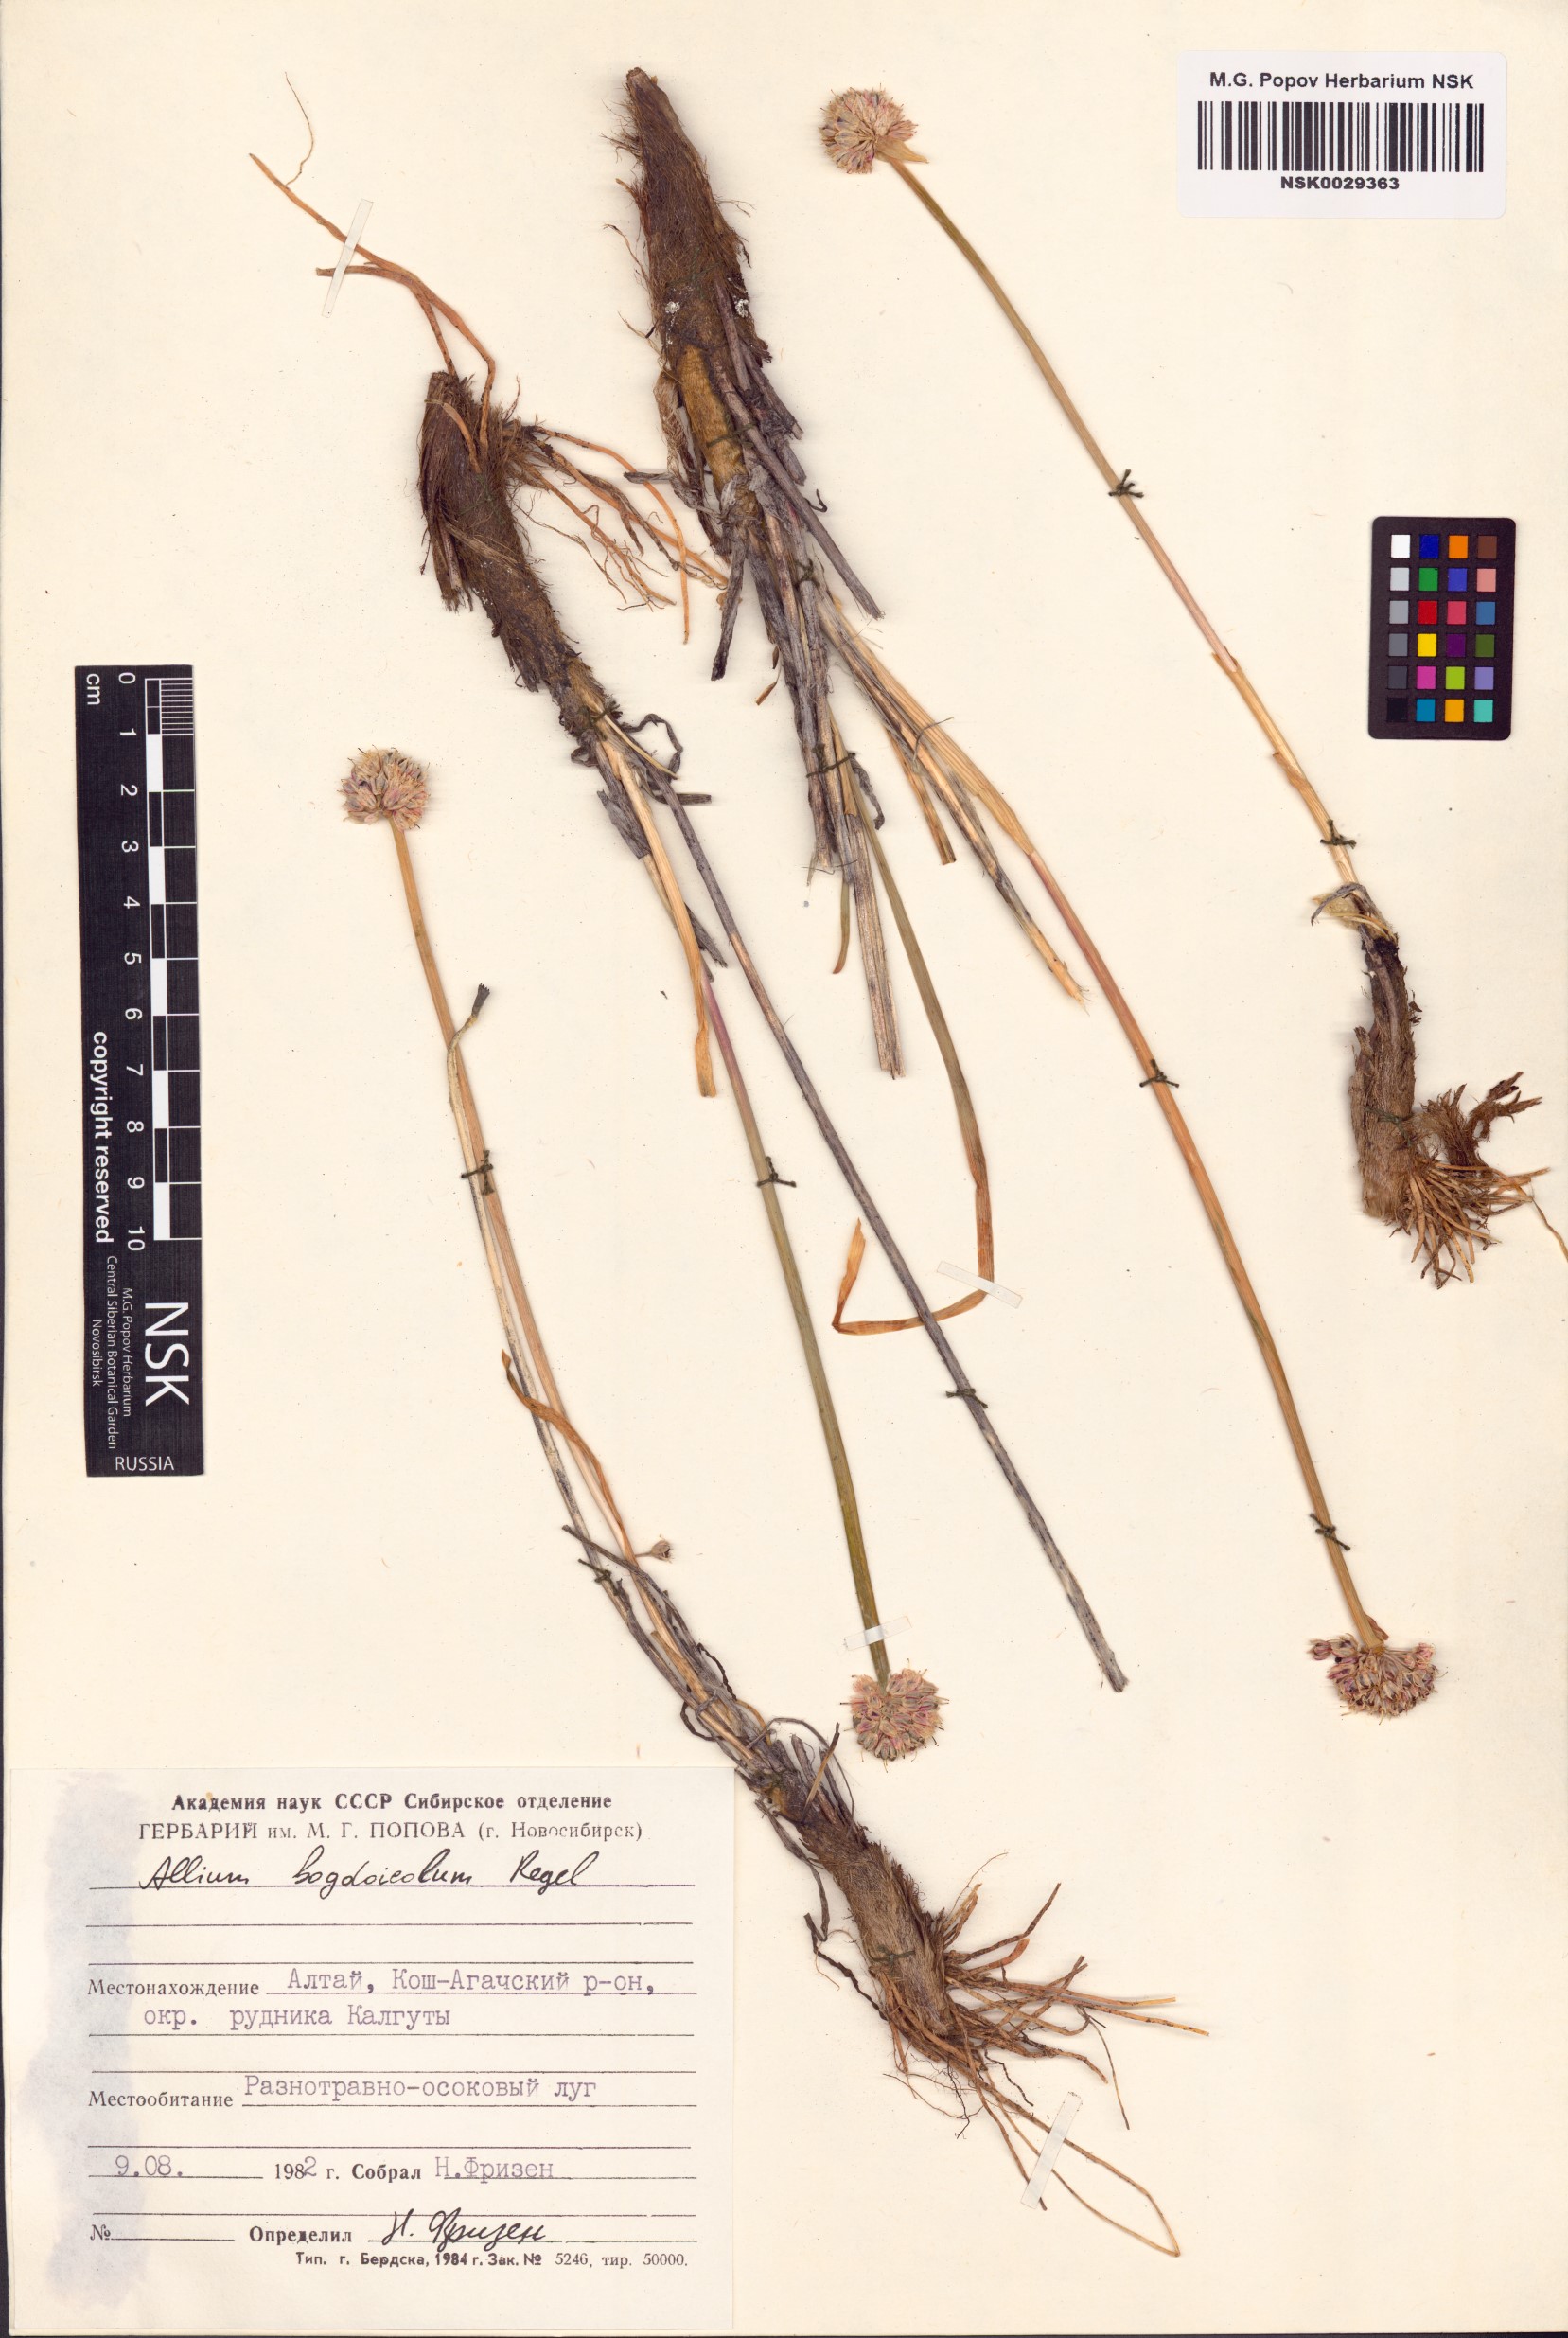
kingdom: Plantae
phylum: Tracheophyta
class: Liliopsida
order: Asparagales
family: Amaryllidaceae
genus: Allium
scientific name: Allium schrenkii
